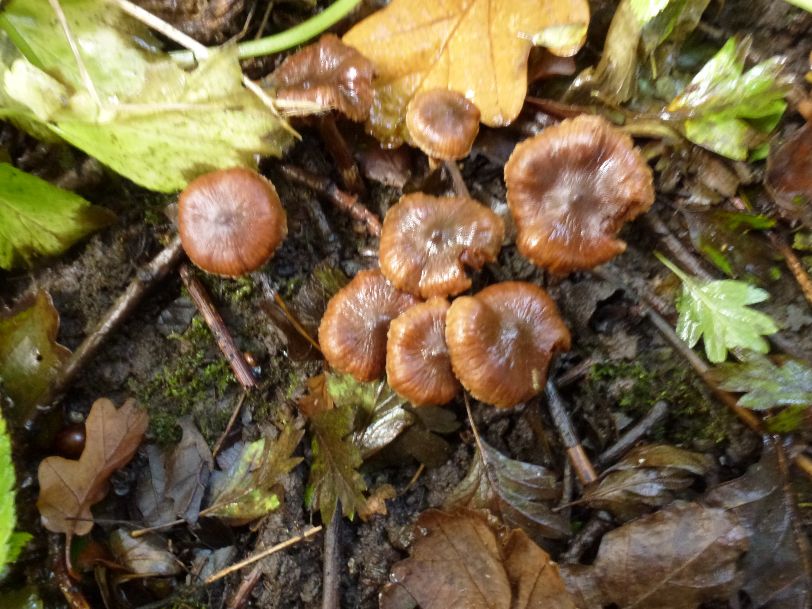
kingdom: Fungi
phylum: Basidiomycota
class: Agaricomycetes
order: Agaricales
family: Cortinariaceae
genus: Cortinarius
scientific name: Cortinarius pilatii
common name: Piláts slørhat
